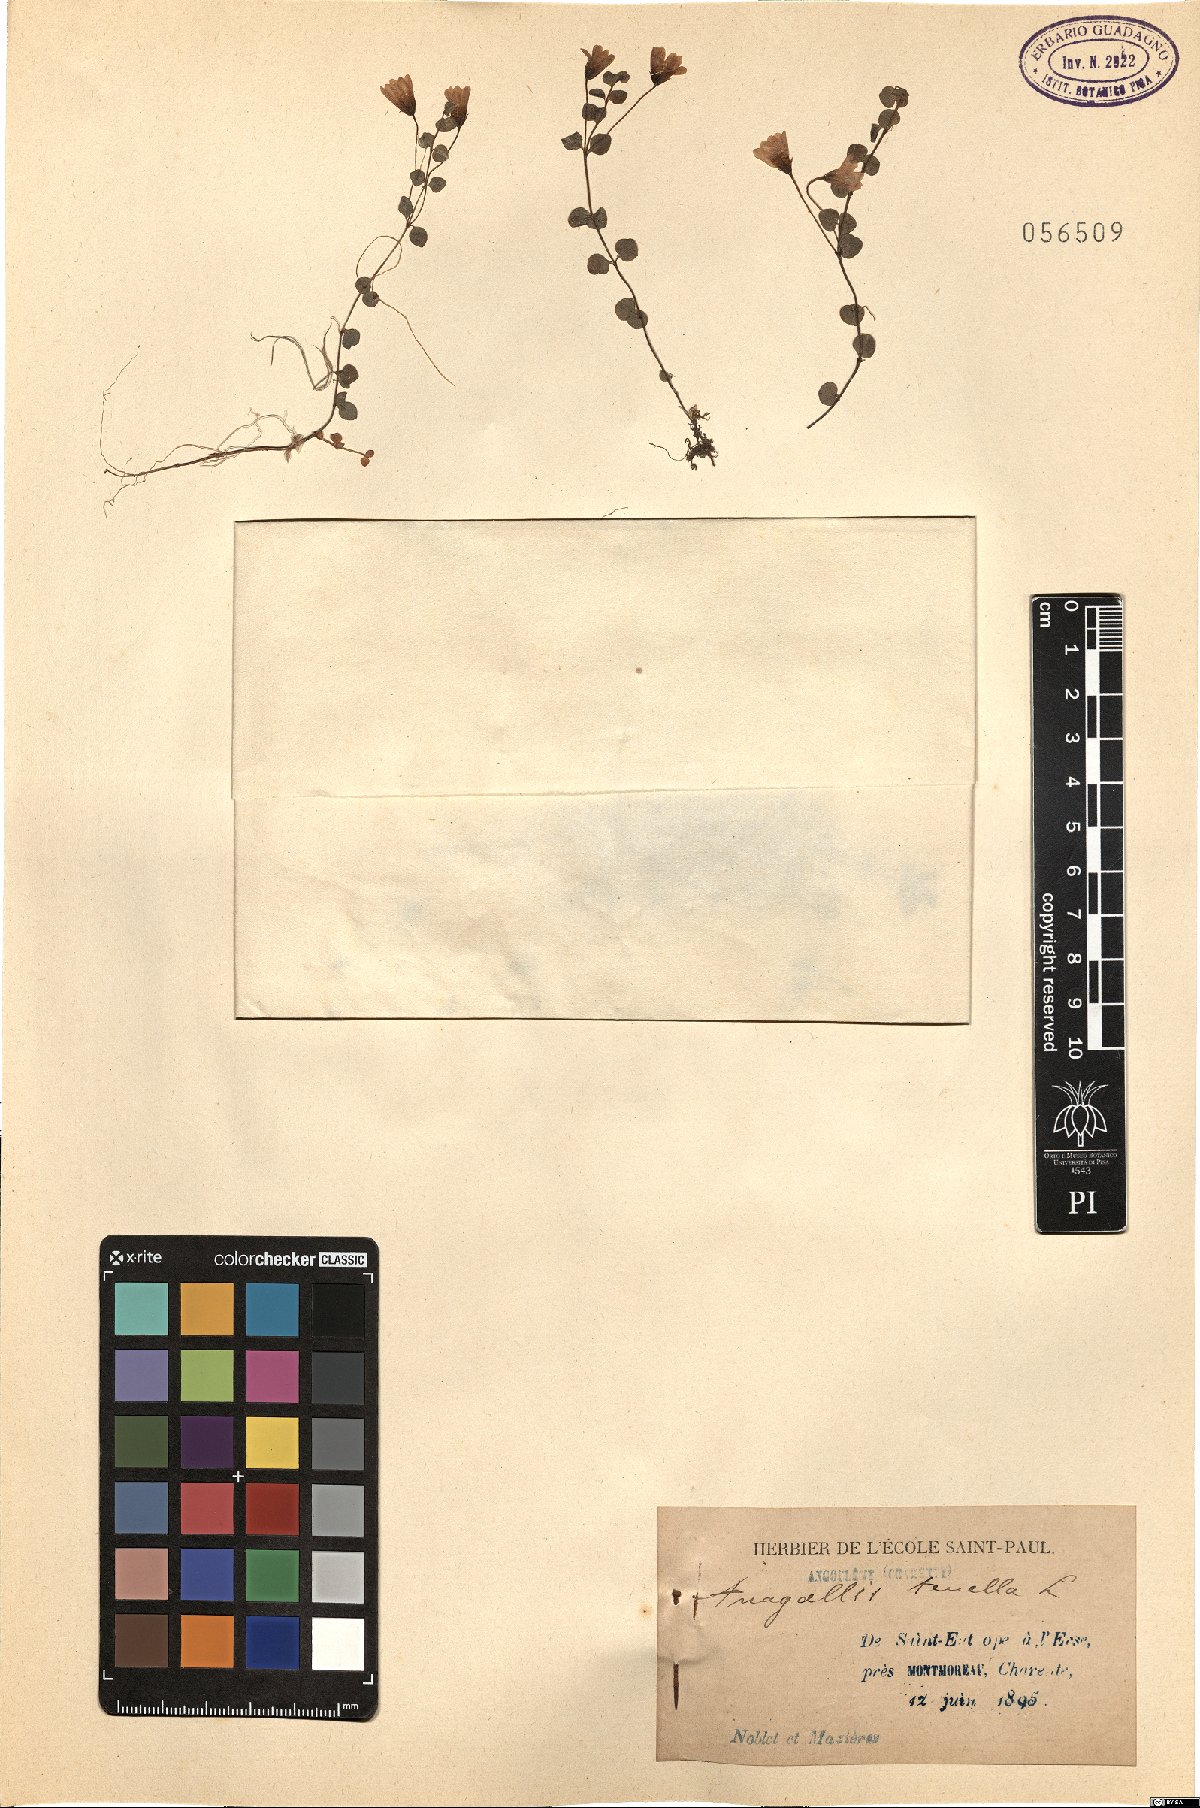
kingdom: Plantae
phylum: Tracheophyta
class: Magnoliopsida
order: Ericales
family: Primulaceae
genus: Lysimachia
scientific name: Lysimachia tenella
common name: European bog pimpernel
